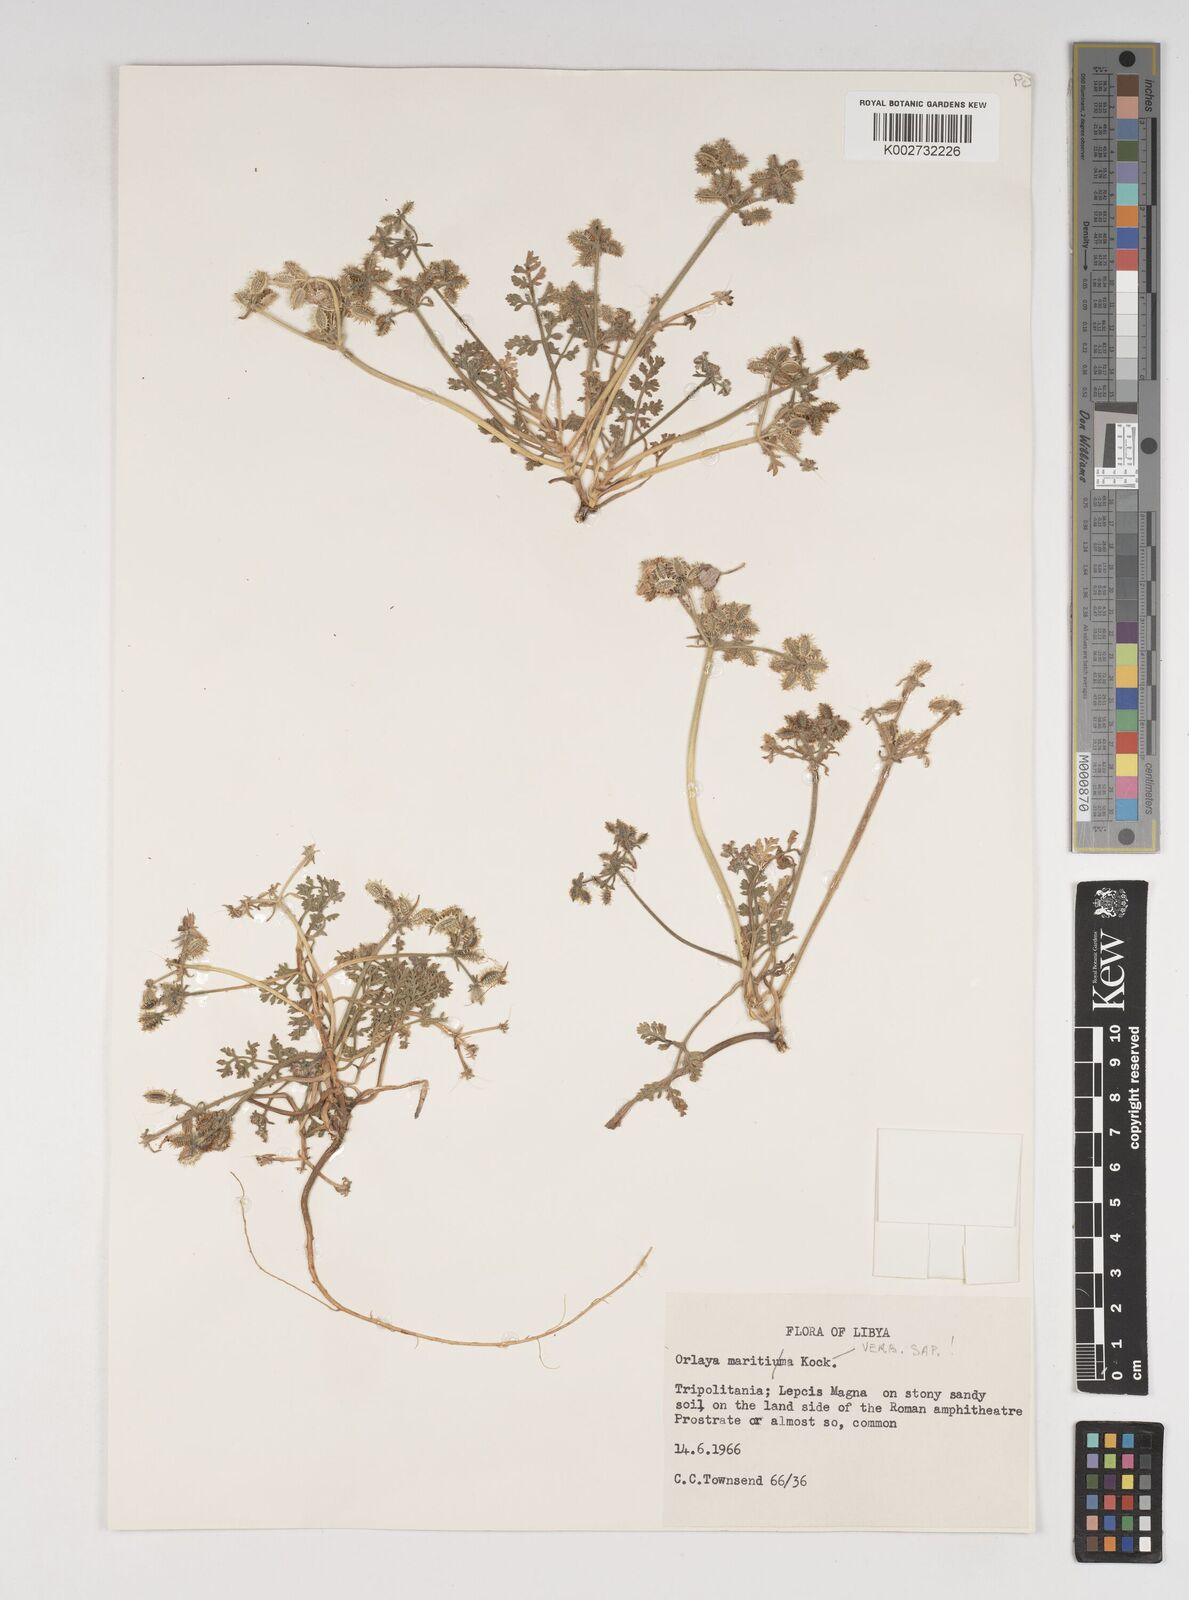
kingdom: Plantae
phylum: Tracheophyta
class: Magnoliopsida
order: Apiales
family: Apiaceae
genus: Daucus
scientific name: Daucus pumilus
